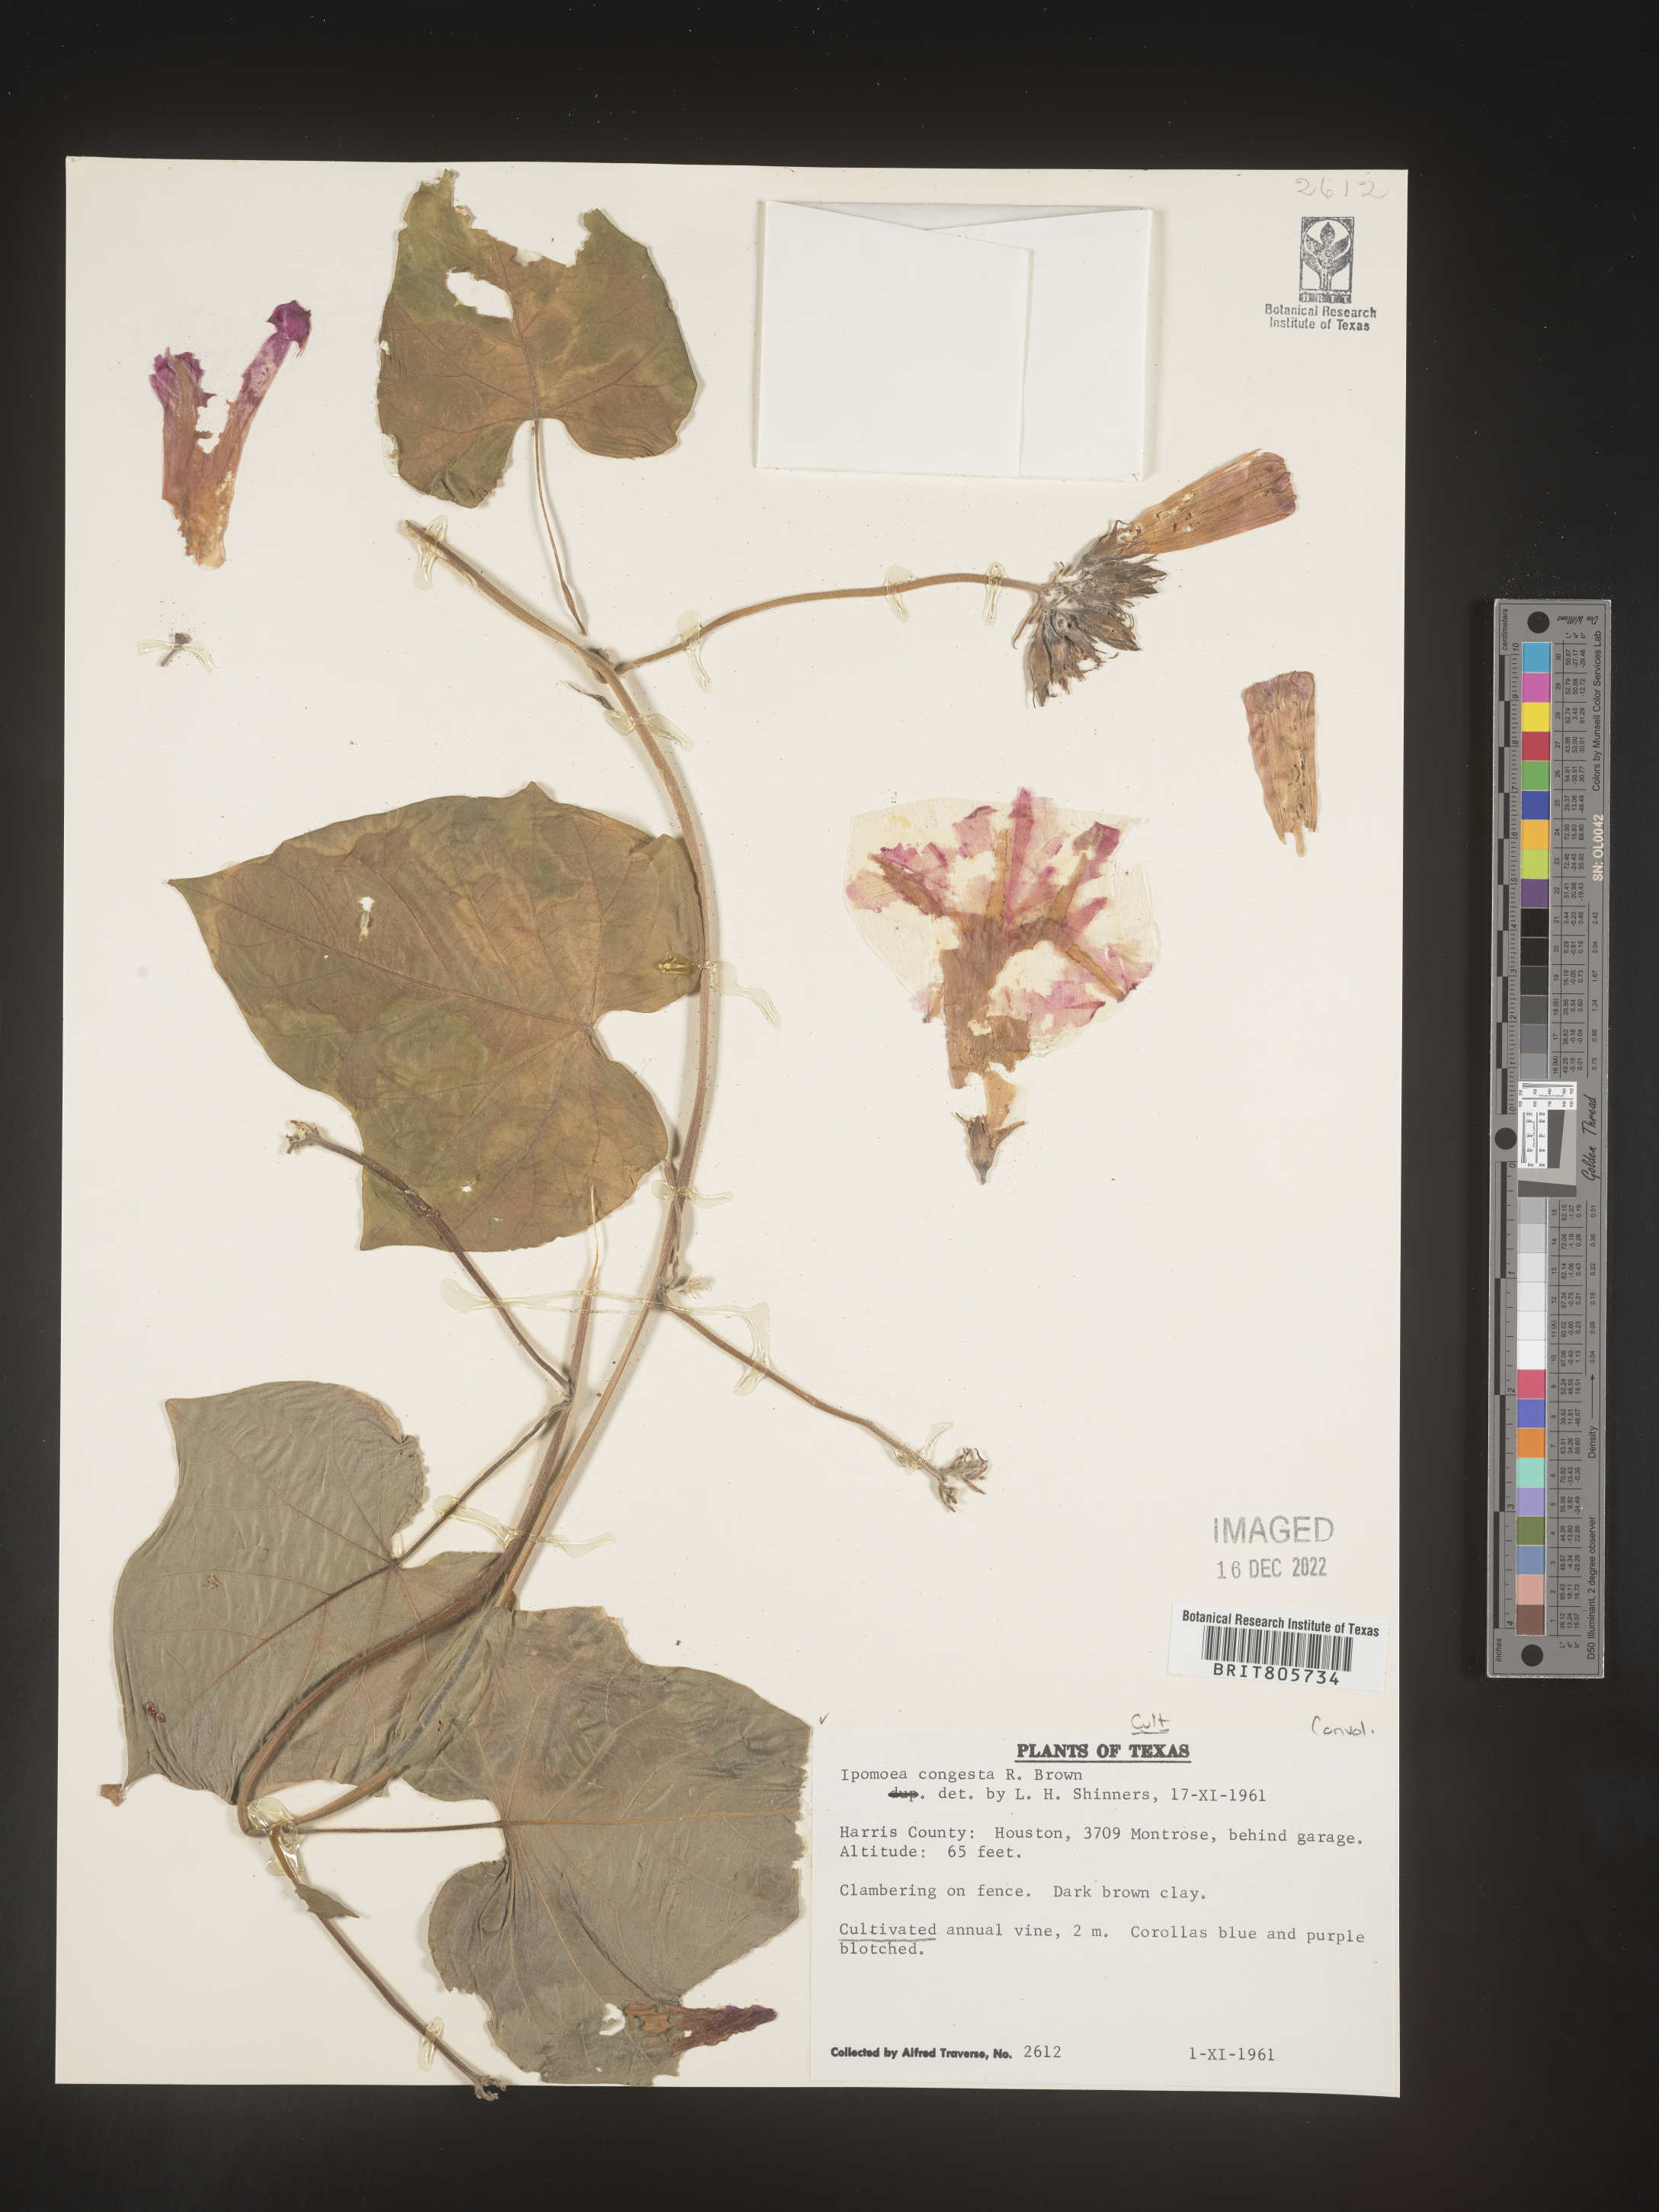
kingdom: Plantae
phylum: Tracheophyta
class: Magnoliopsida
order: Solanales
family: Convolvulaceae
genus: Ipomoea
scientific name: Ipomoea
